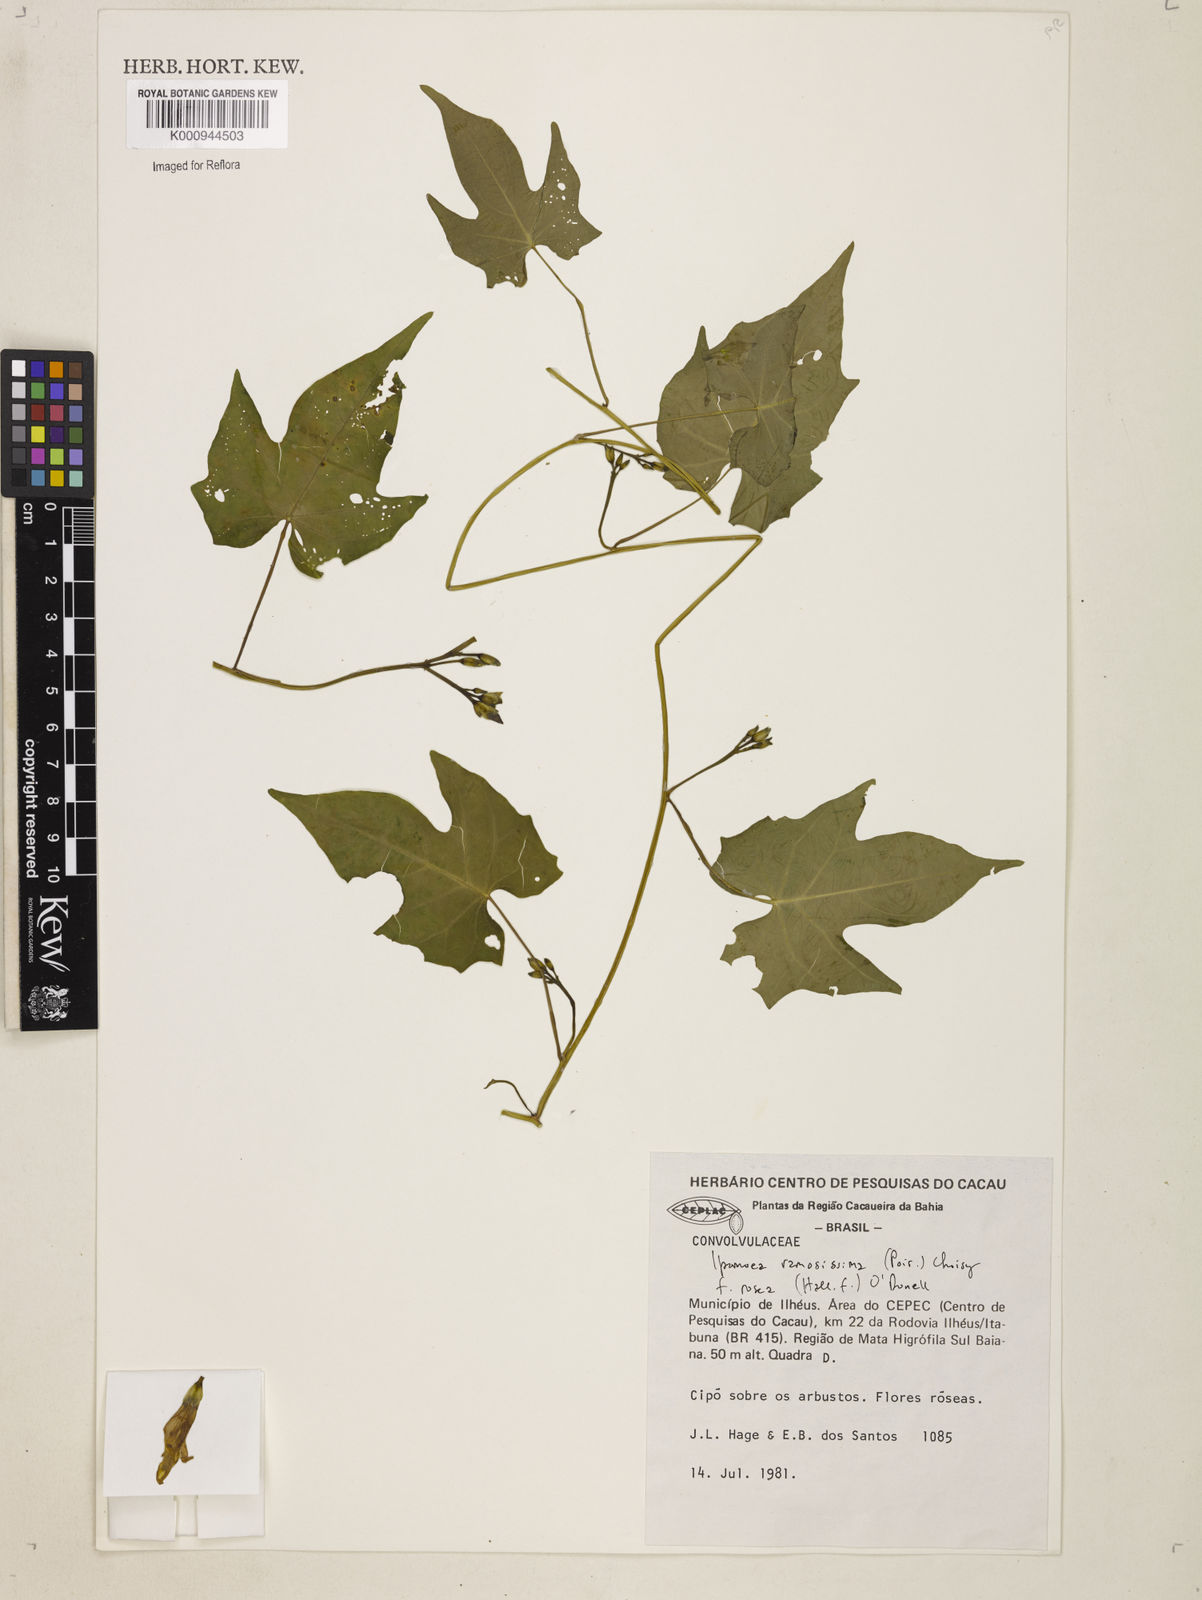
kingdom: Plantae
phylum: Tracheophyta
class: Magnoliopsida
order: Solanales
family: Convolvulaceae
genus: Ipomoea
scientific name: Ipomoea ramosissima
